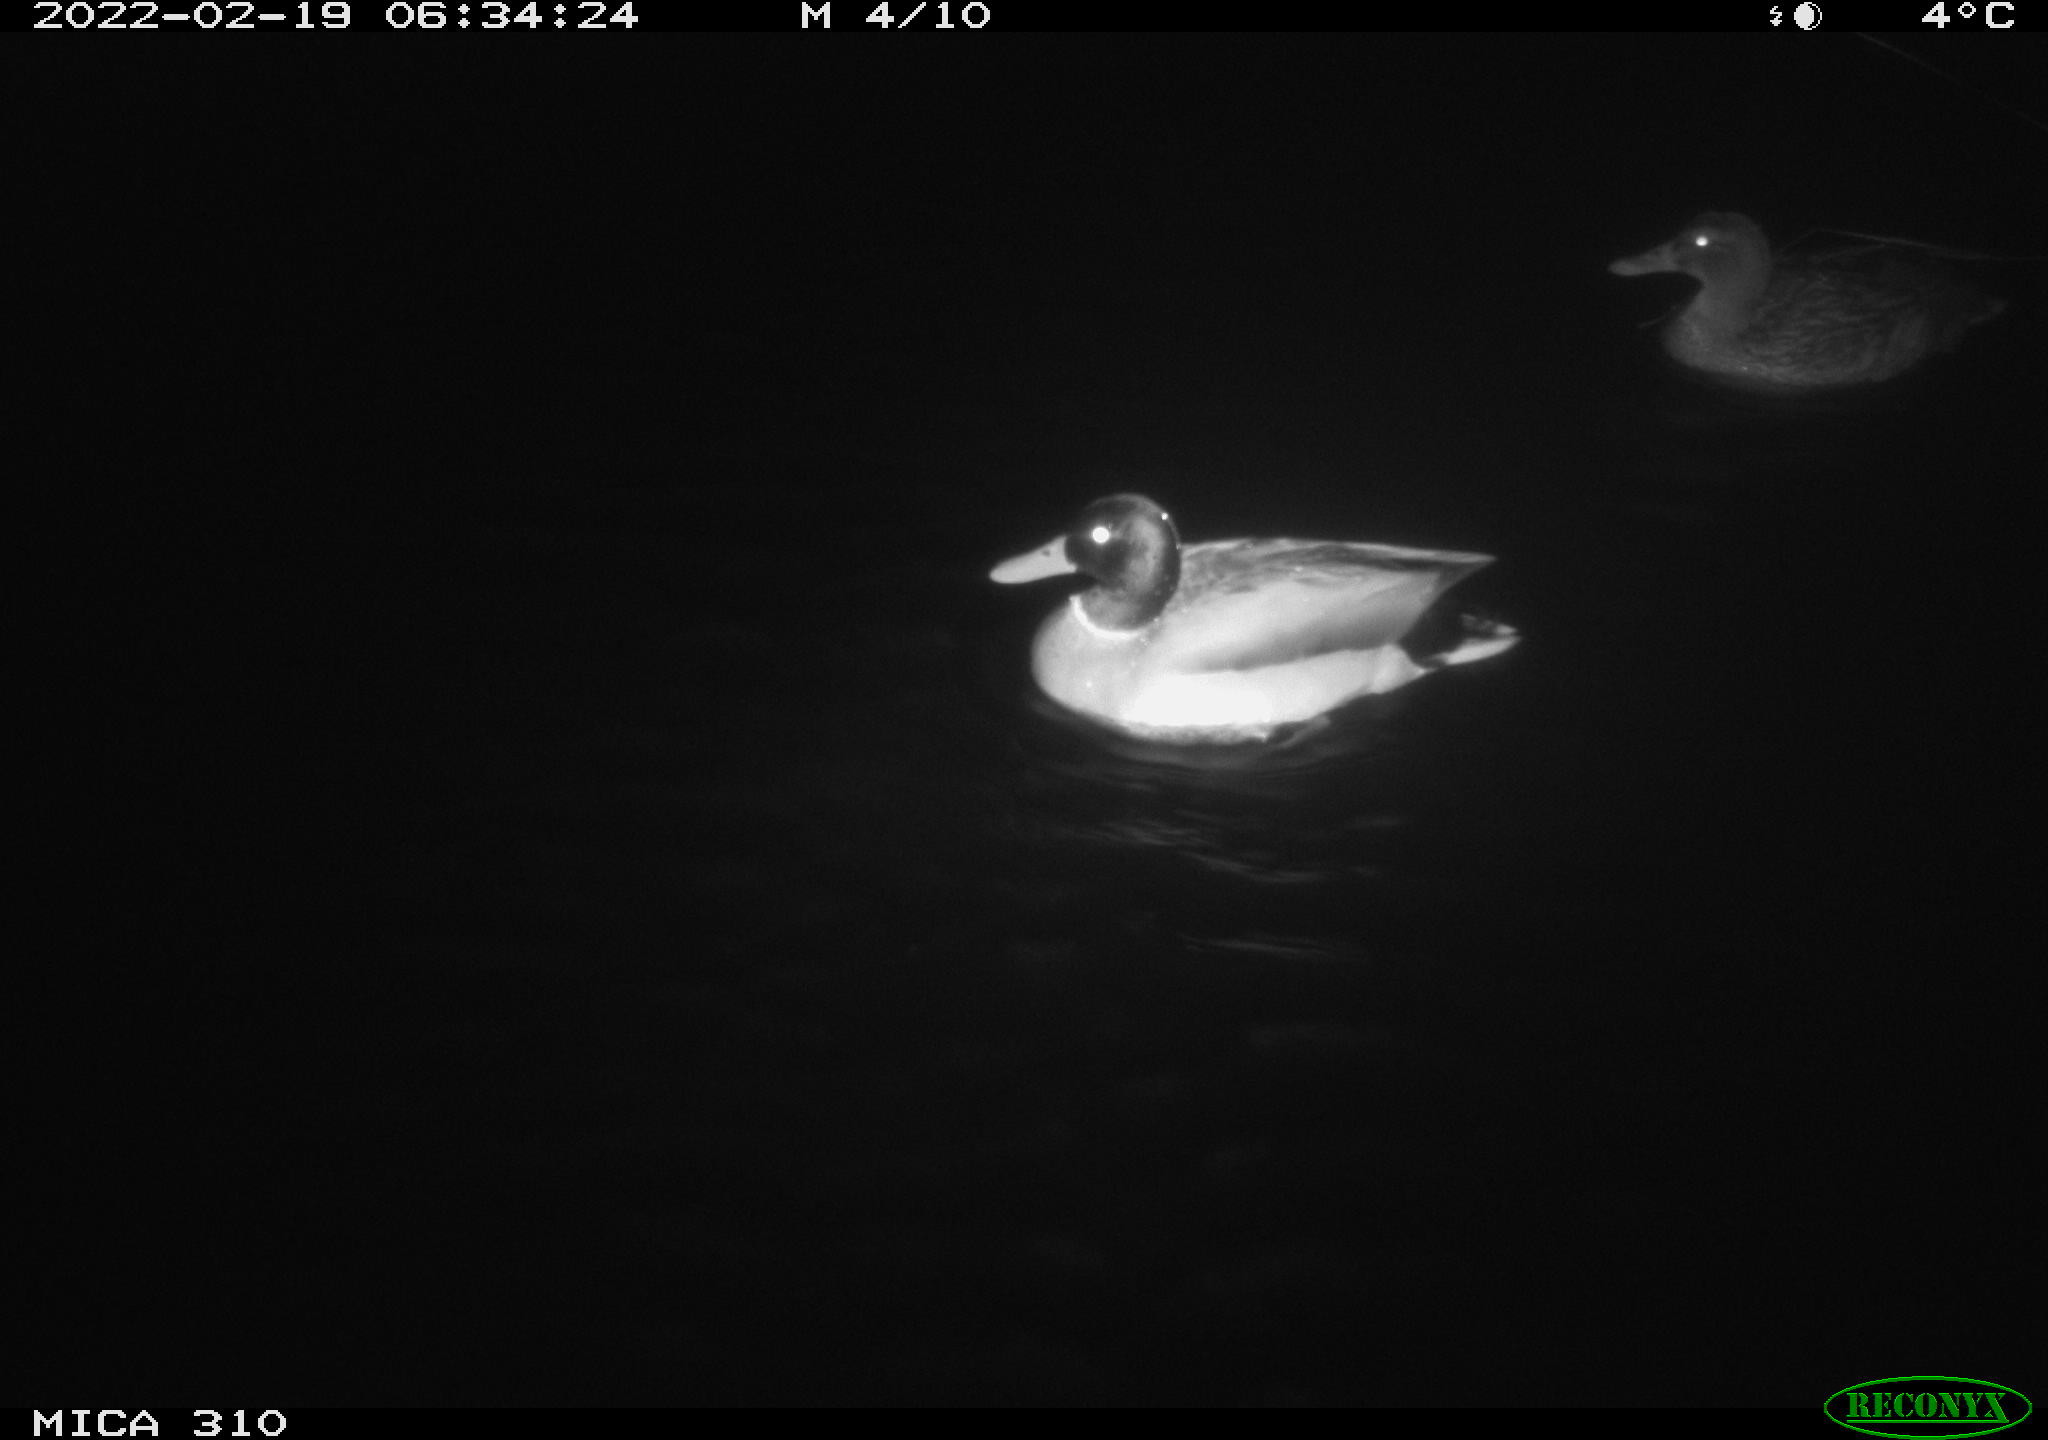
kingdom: Animalia
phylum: Chordata
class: Aves
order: Anseriformes
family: Anatidae
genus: Anas
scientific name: Anas platyrhynchos
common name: Mallard
